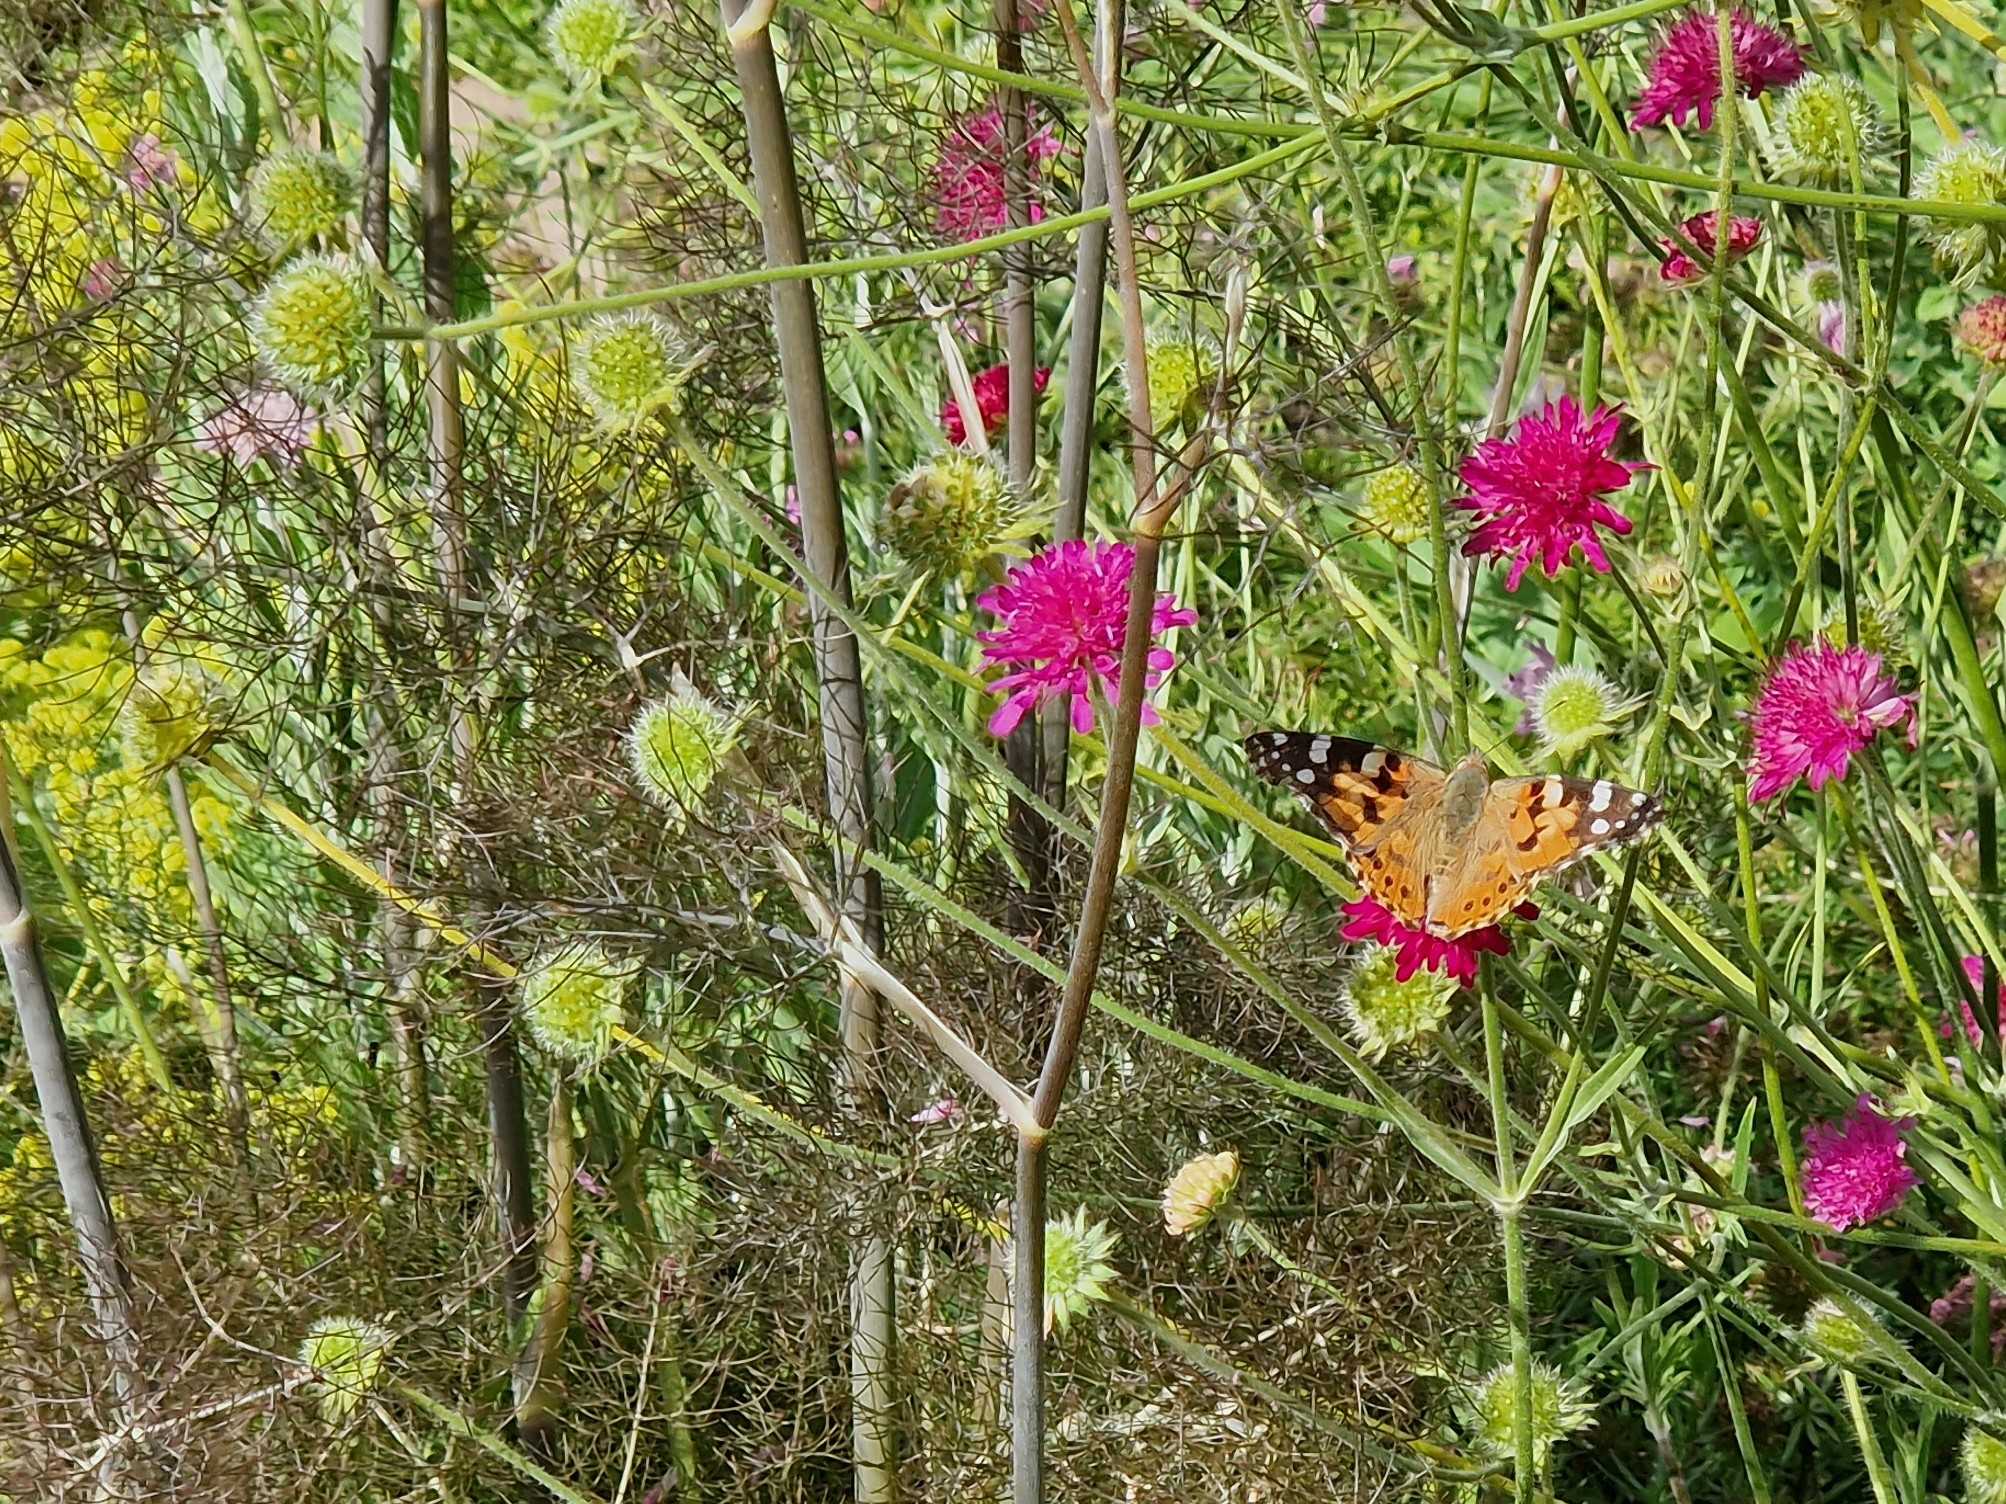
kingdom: Animalia
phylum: Arthropoda
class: Insecta
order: Lepidoptera
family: Nymphalidae
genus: Vanessa
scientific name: Vanessa cardui
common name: Tidselsommerfugl
